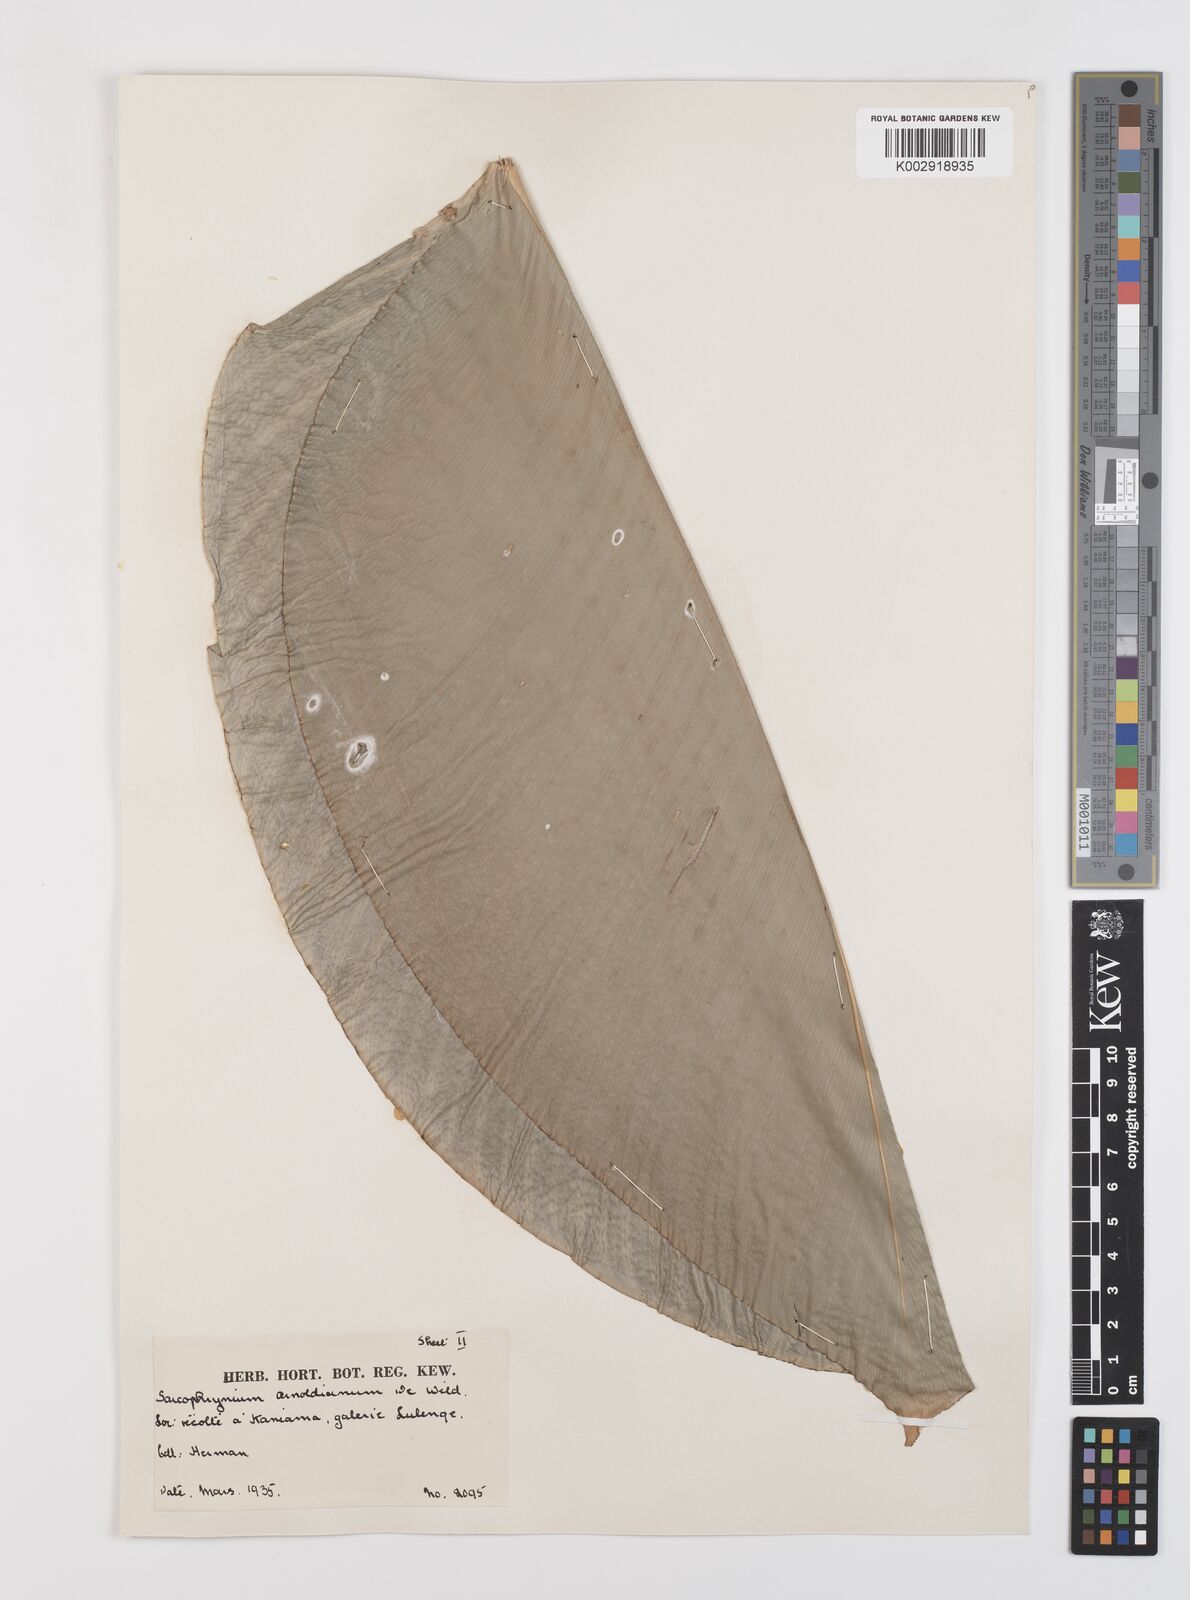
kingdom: Plantae
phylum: Tracheophyta
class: Liliopsida
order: Zingiberales
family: Marantaceae
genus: Megaphrynium
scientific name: Megaphrynium macrostachyum
